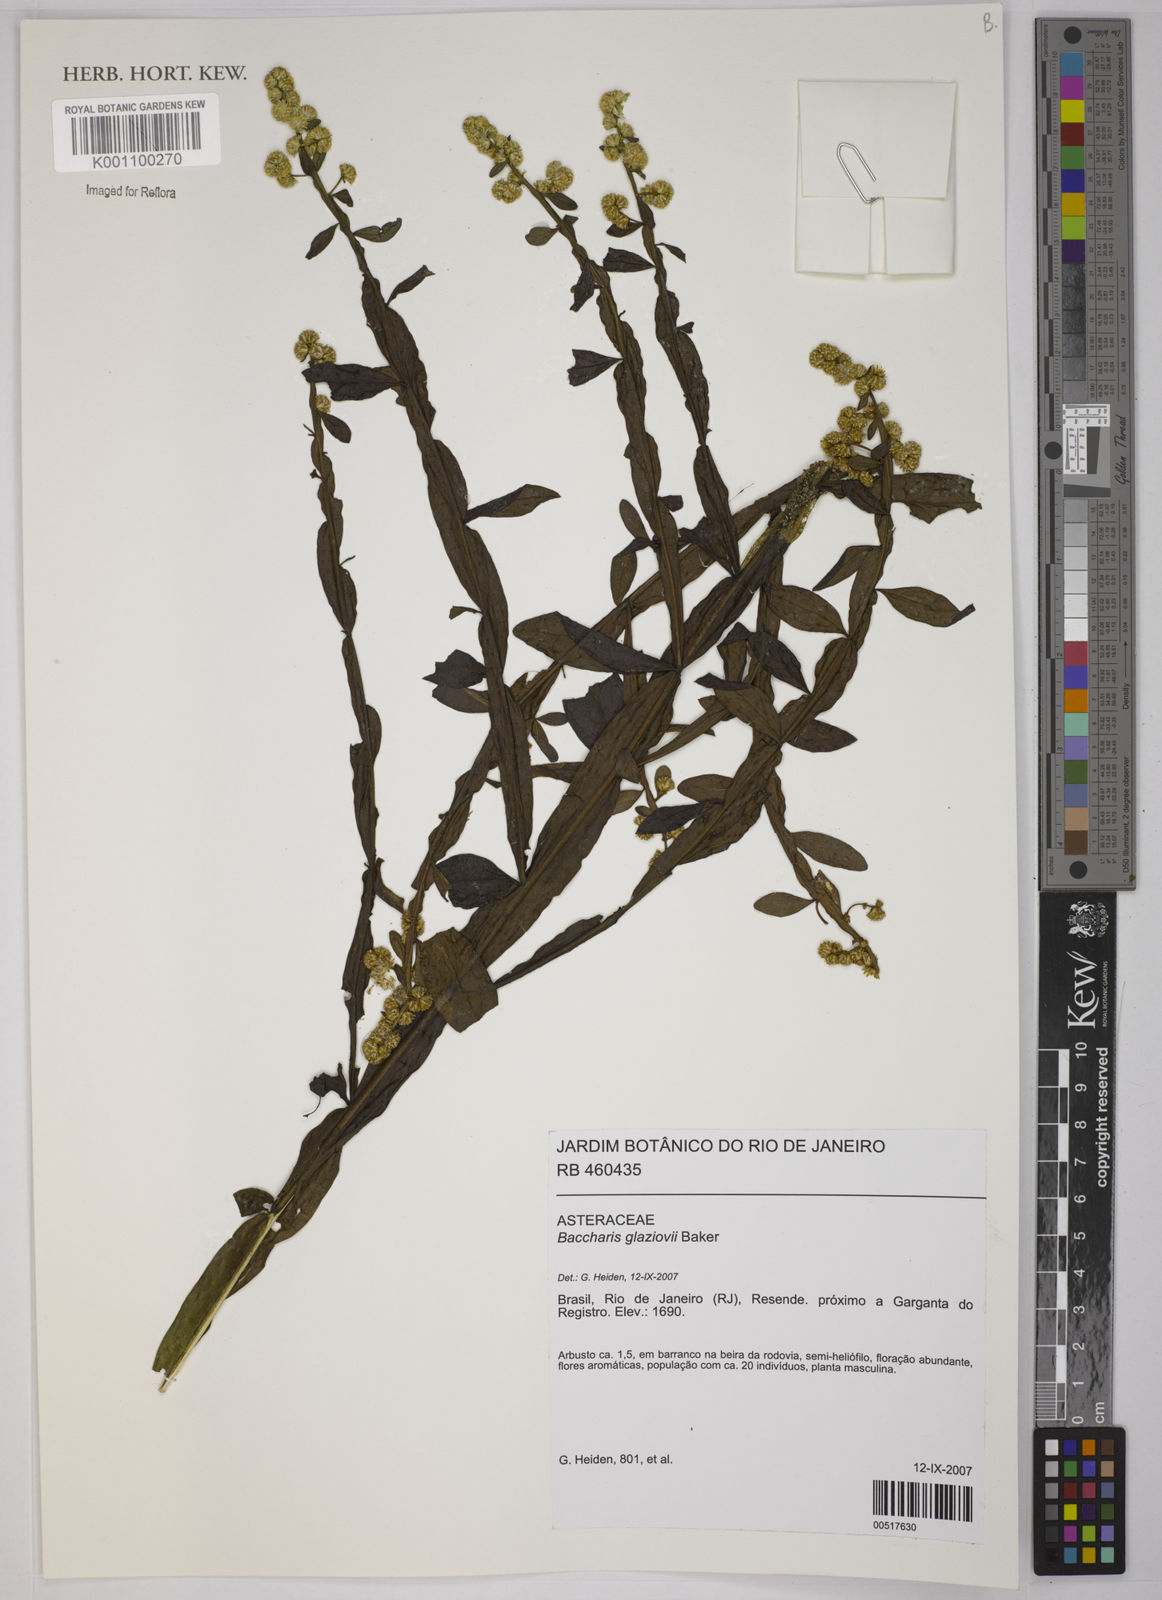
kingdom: Plantae
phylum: Tracheophyta
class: Magnoliopsida
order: Asterales
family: Asteraceae
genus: Baccharis
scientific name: Baccharis glaziovii
